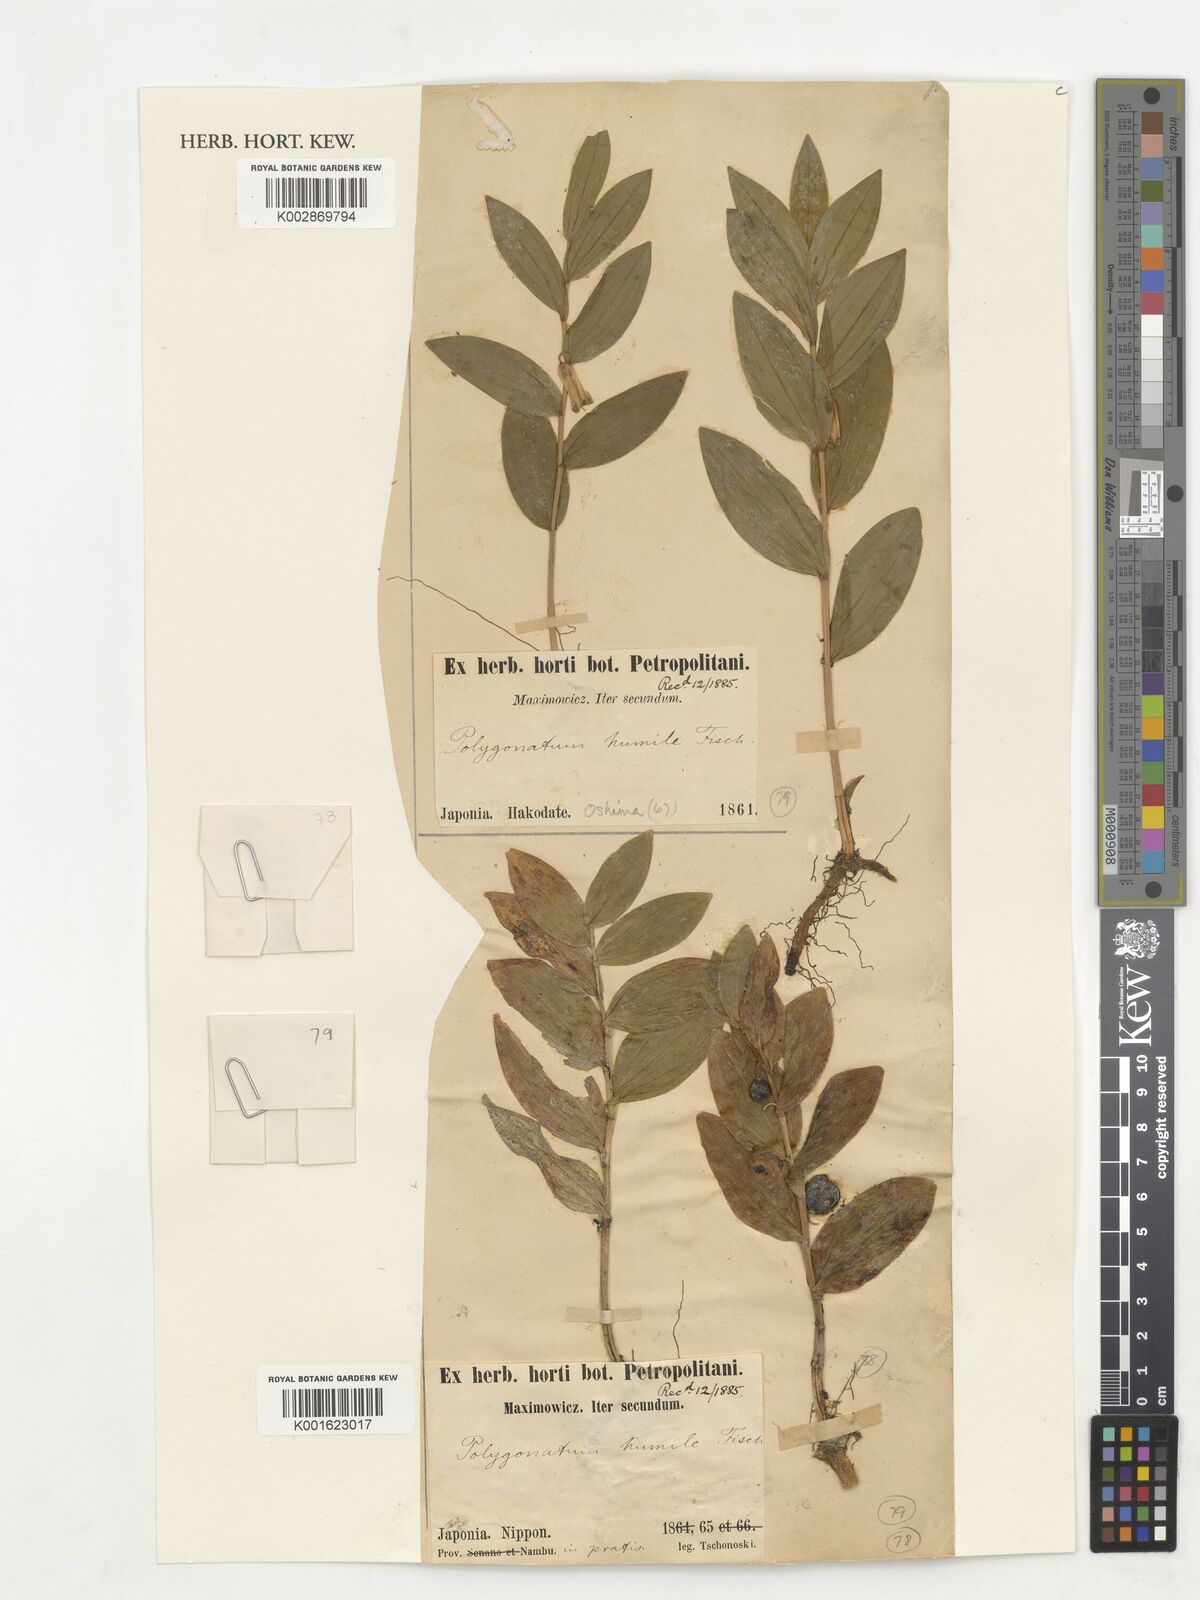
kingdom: Plantae
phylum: Tracheophyta
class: Liliopsida
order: Asparagales
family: Asparagaceae
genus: Polygonatum
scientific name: Polygonatum humile
